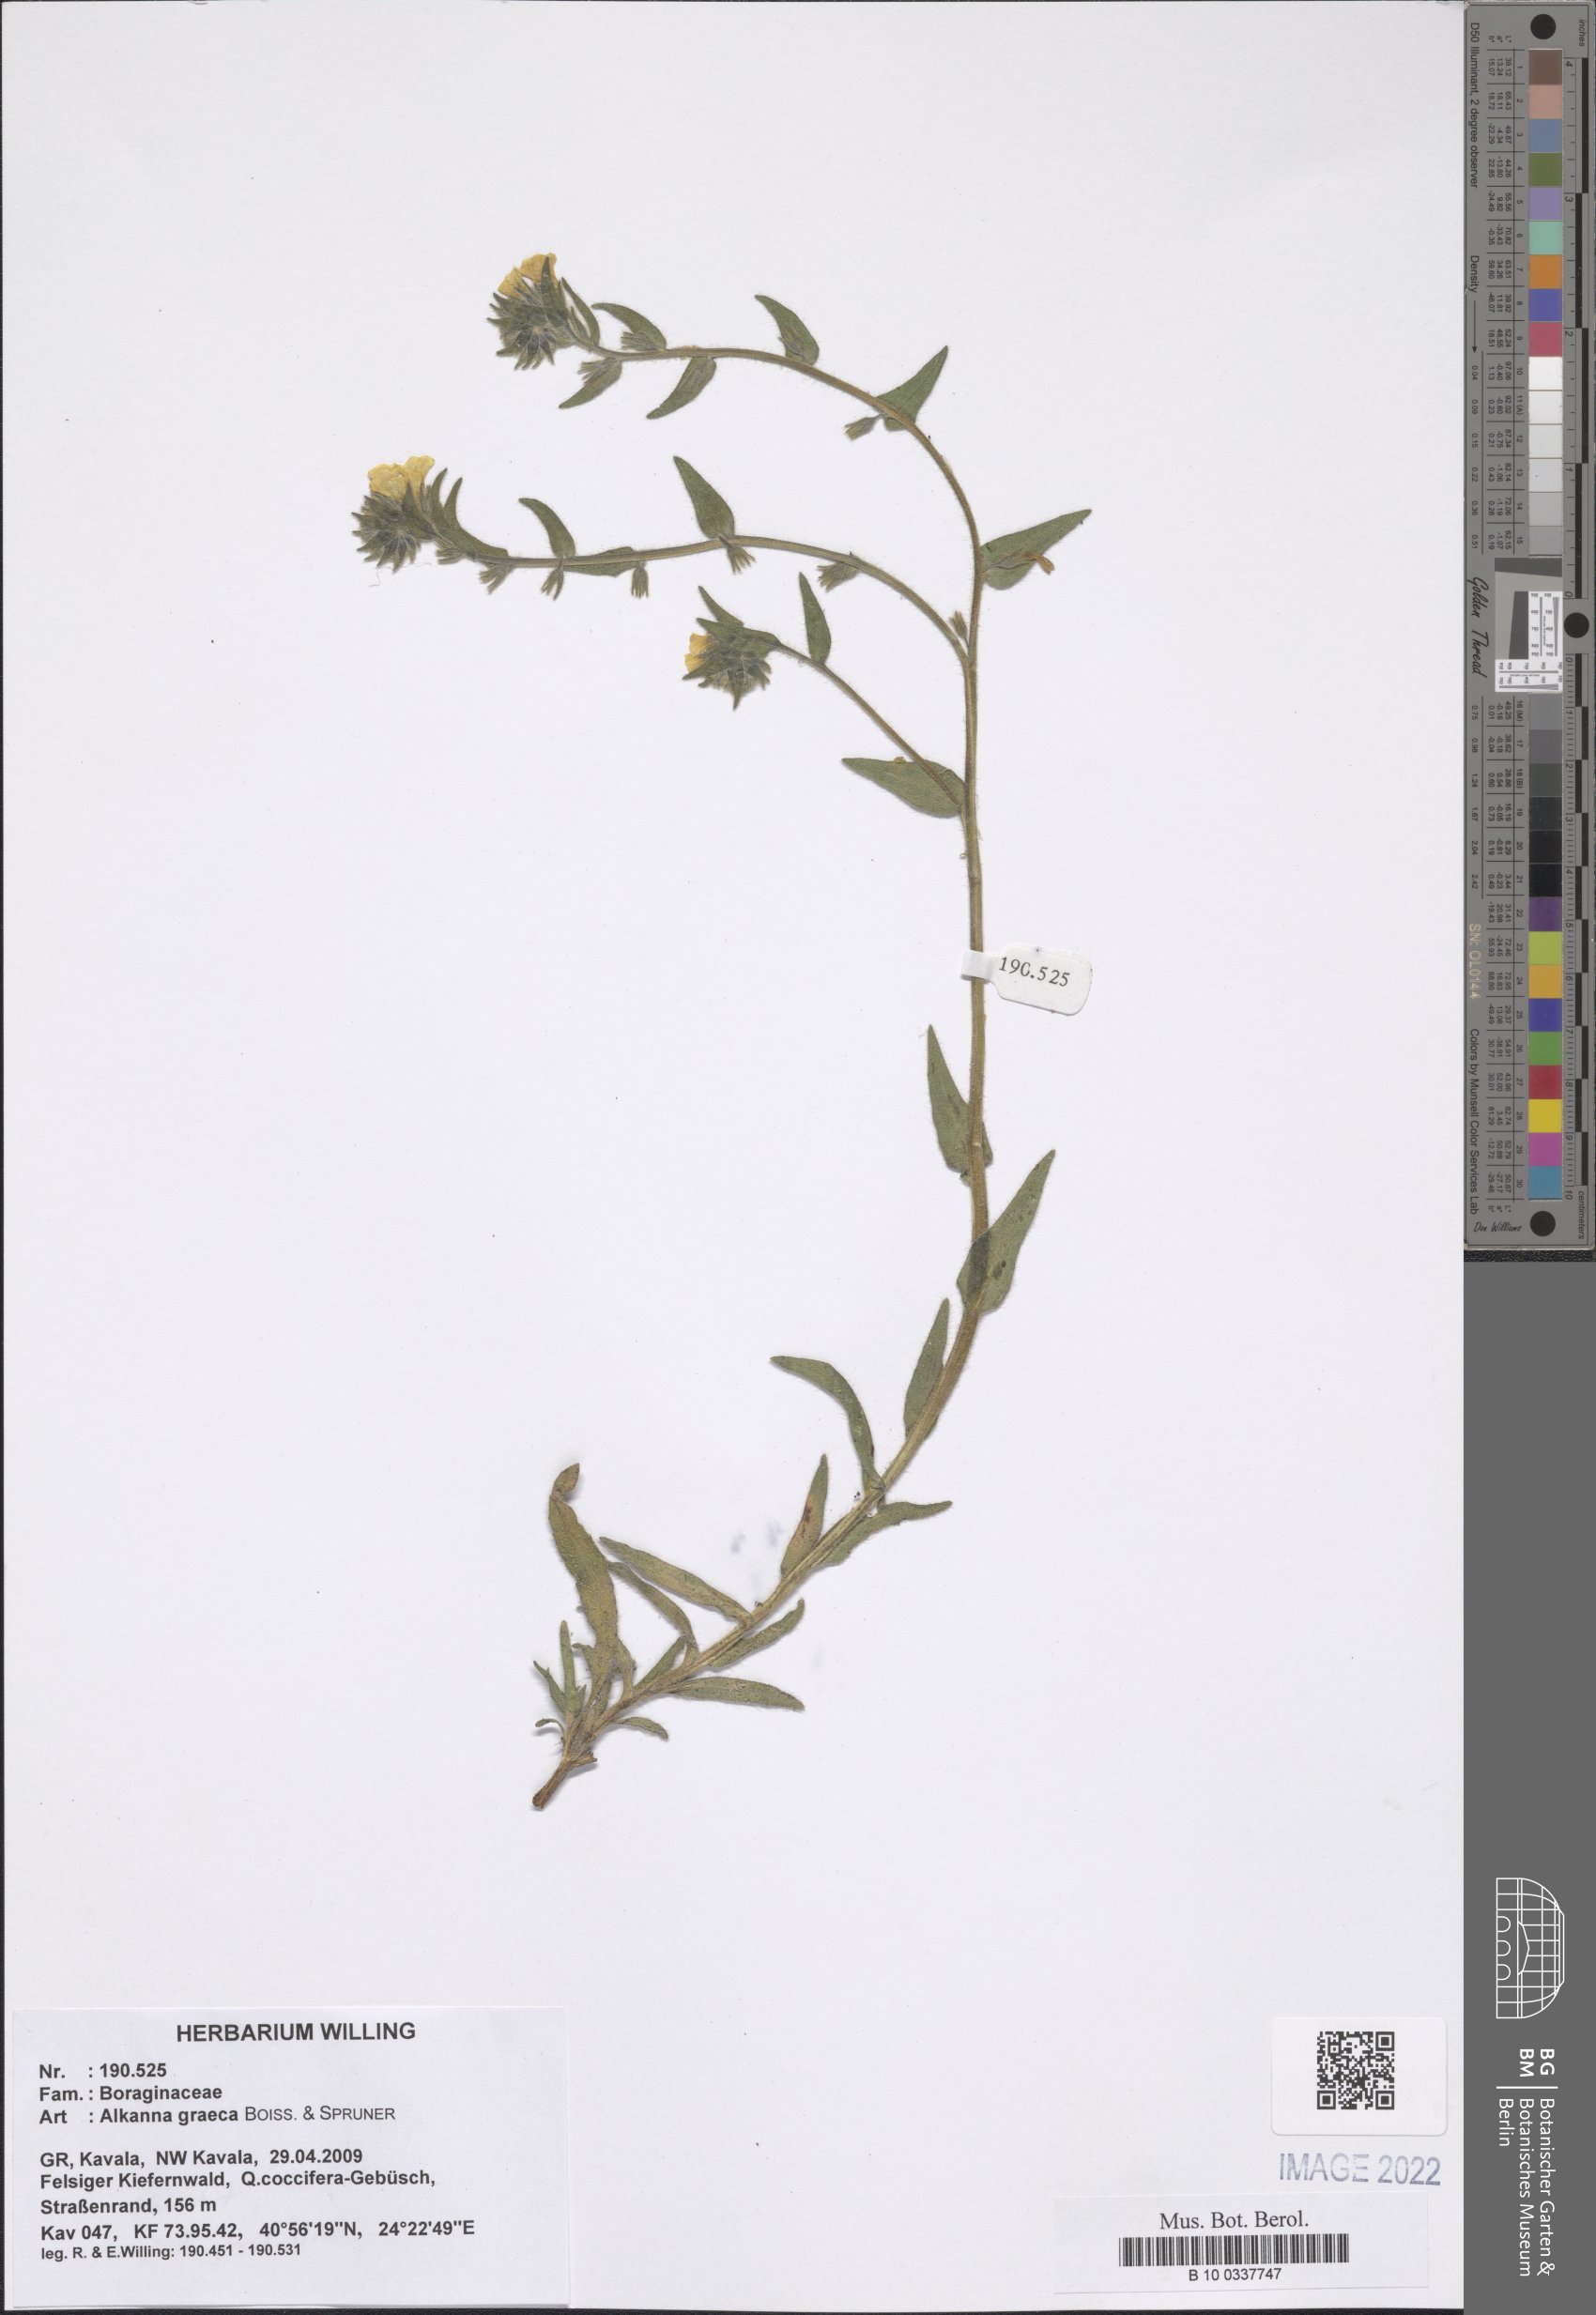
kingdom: Plantae
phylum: Tracheophyta
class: Magnoliopsida
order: Boraginales
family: Boraginaceae
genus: Alkanna
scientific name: Alkanna graeca
